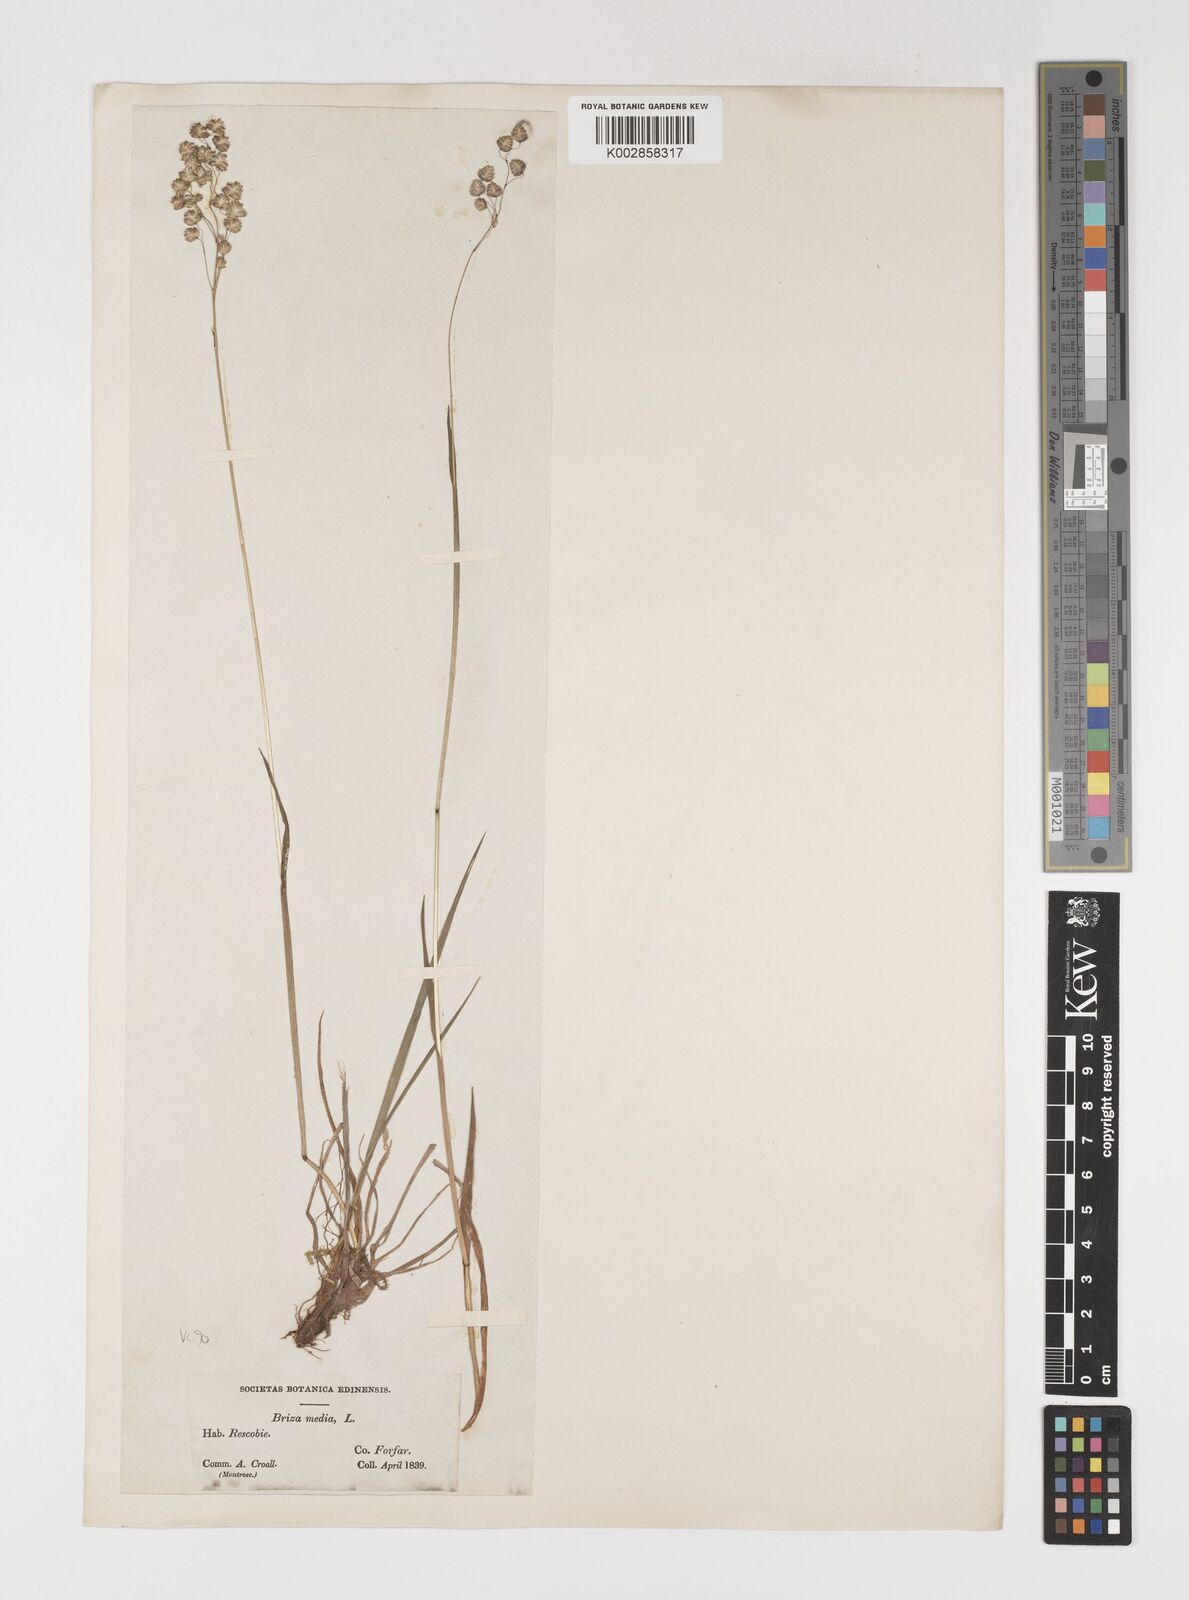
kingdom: Plantae
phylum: Tracheophyta
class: Liliopsida
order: Poales
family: Poaceae
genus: Briza
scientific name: Briza media
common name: Quaking grass
